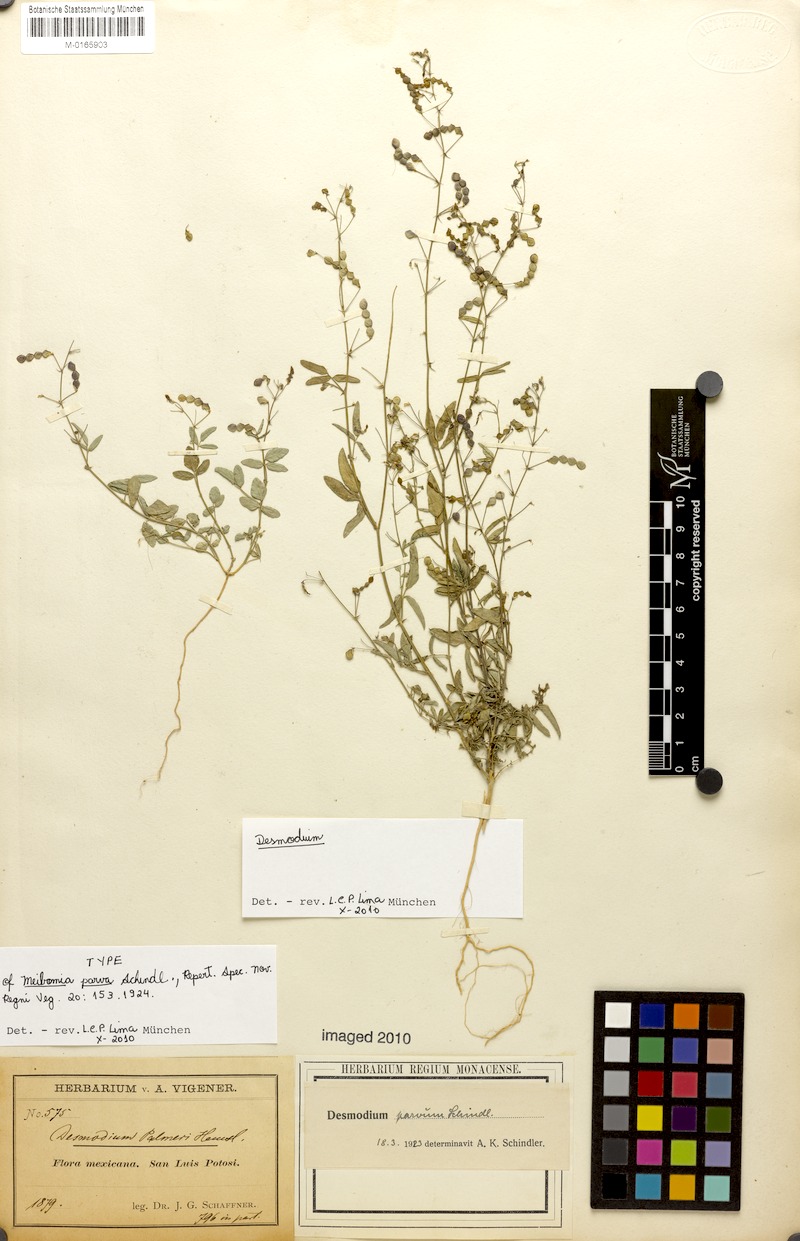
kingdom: Plantae
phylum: Tracheophyta
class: Magnoliopsida
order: Fabales
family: Fabaceae
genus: Desmodium
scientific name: Desmodium procumbens
